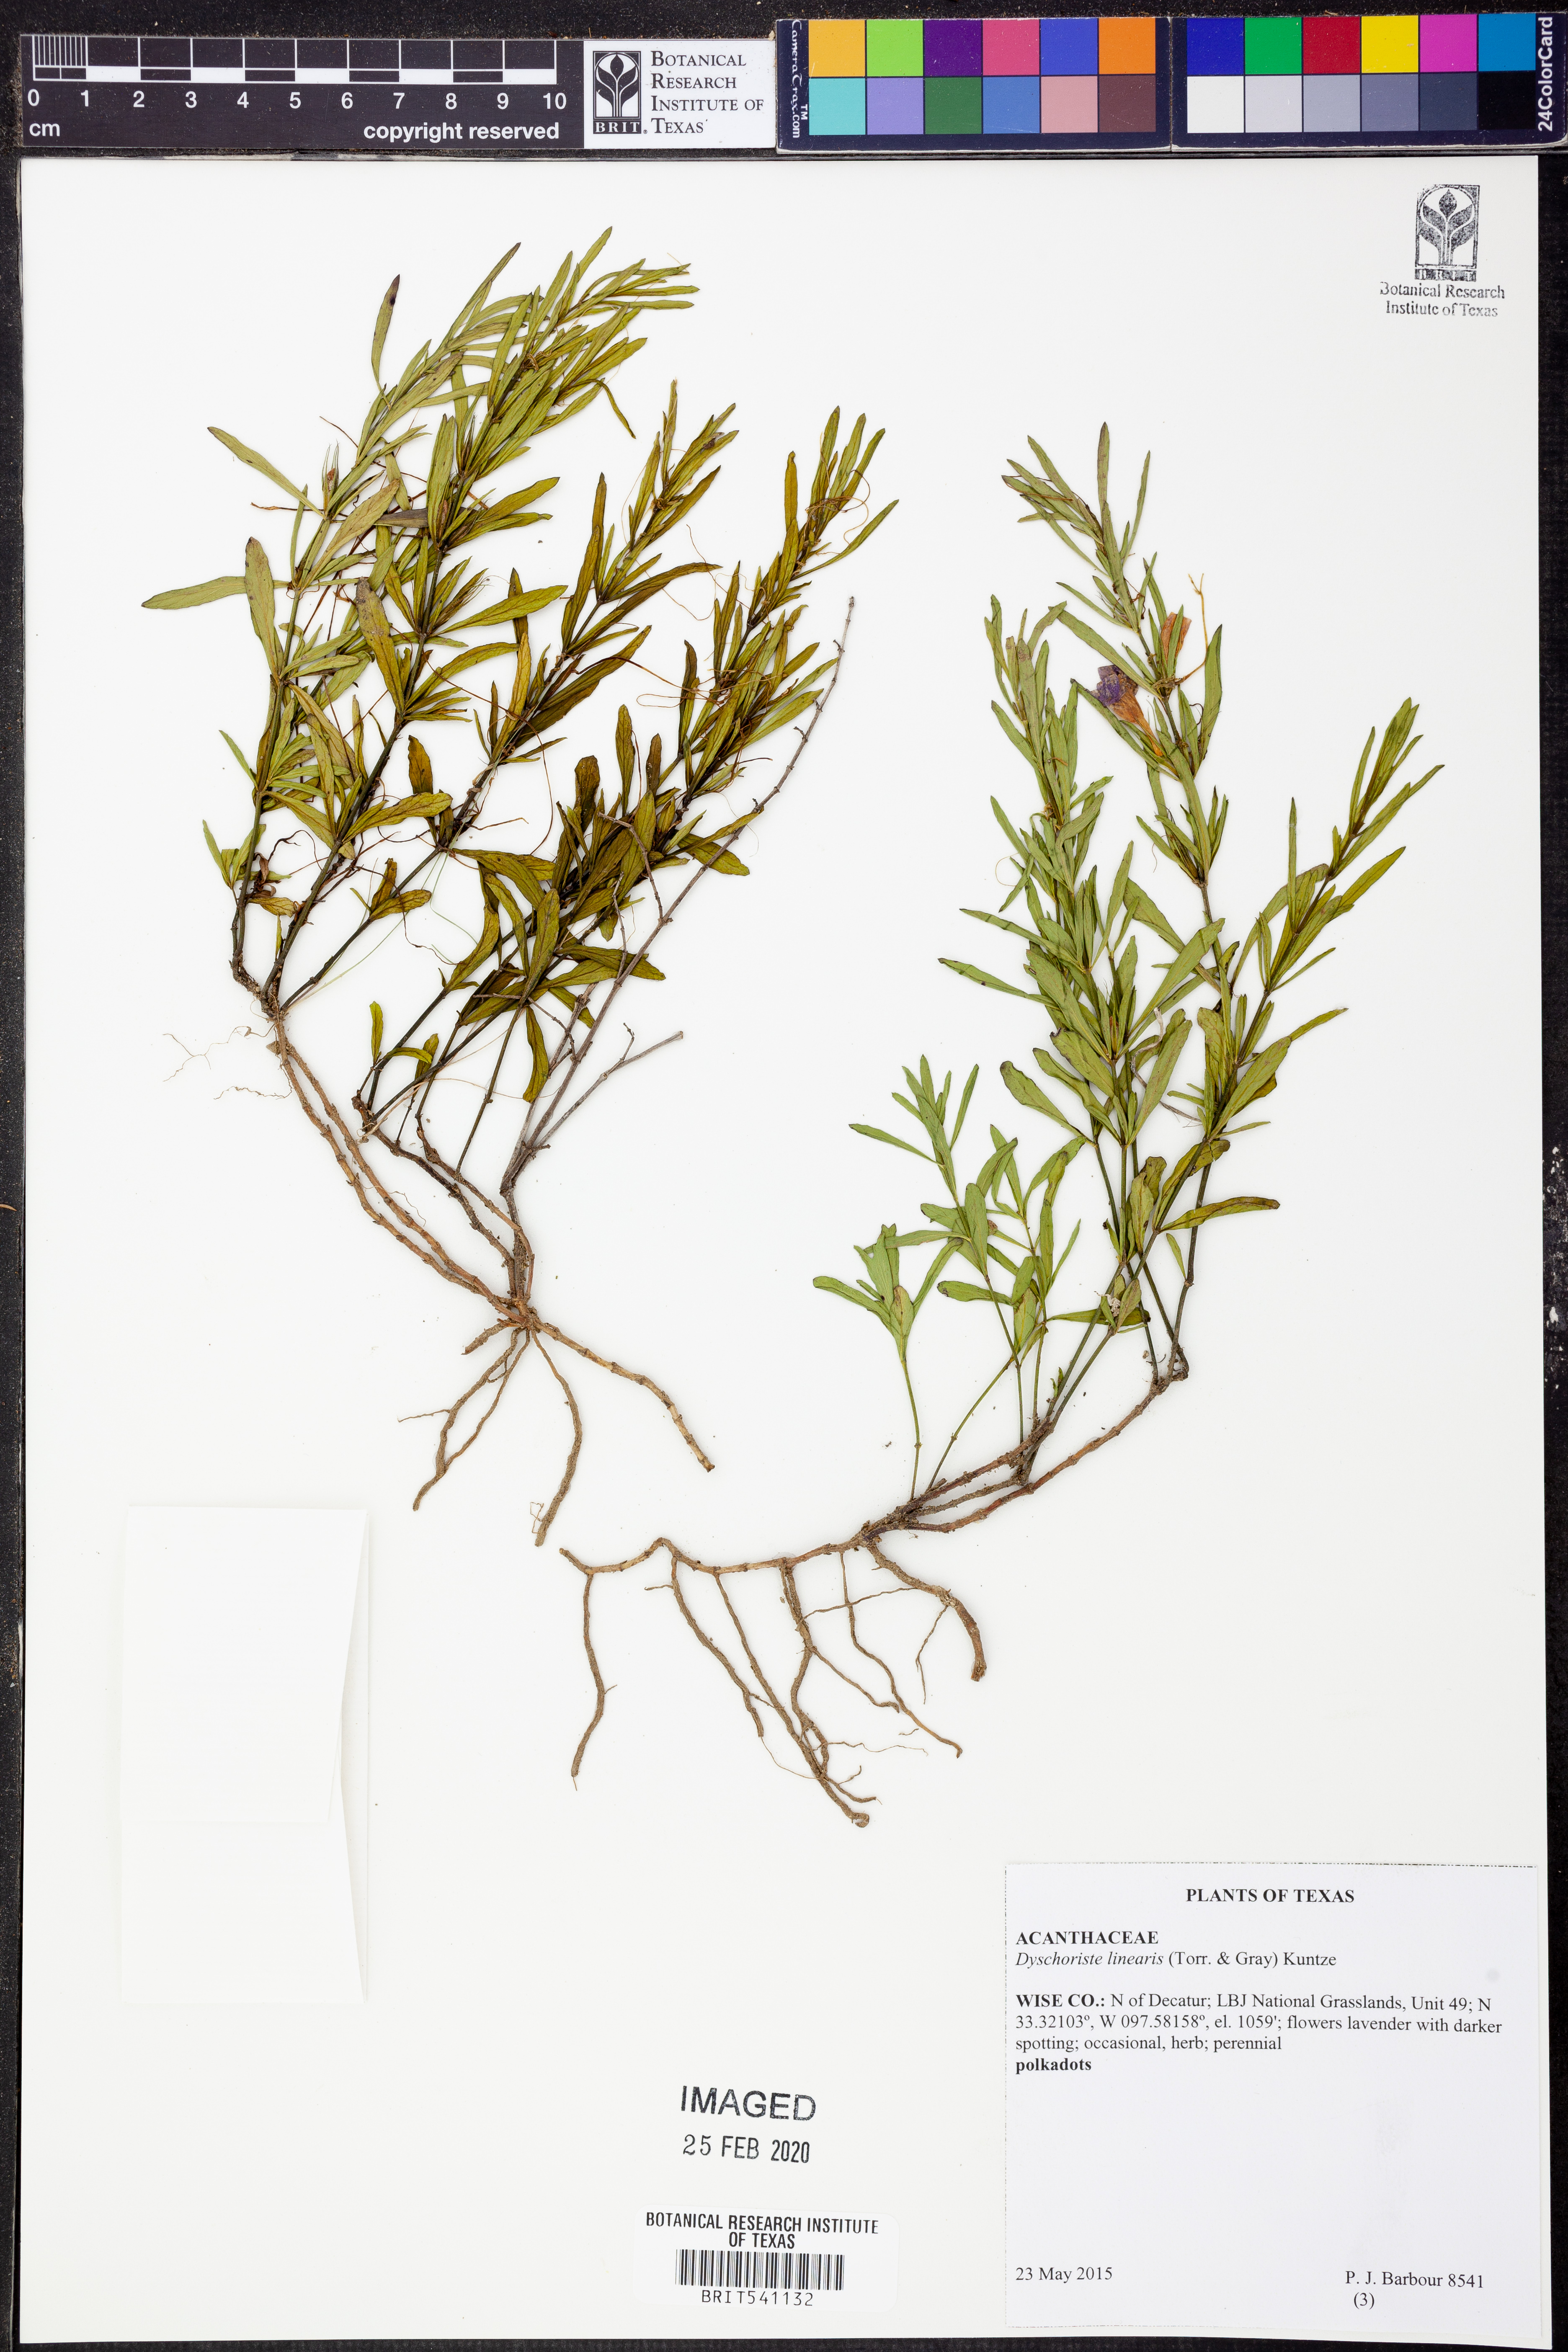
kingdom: Plantae
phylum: Tracheophyta
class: Magnoliopsida
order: Lamiales
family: Acanthaceae
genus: Dyschoriste
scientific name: Dyschoriste linearis
